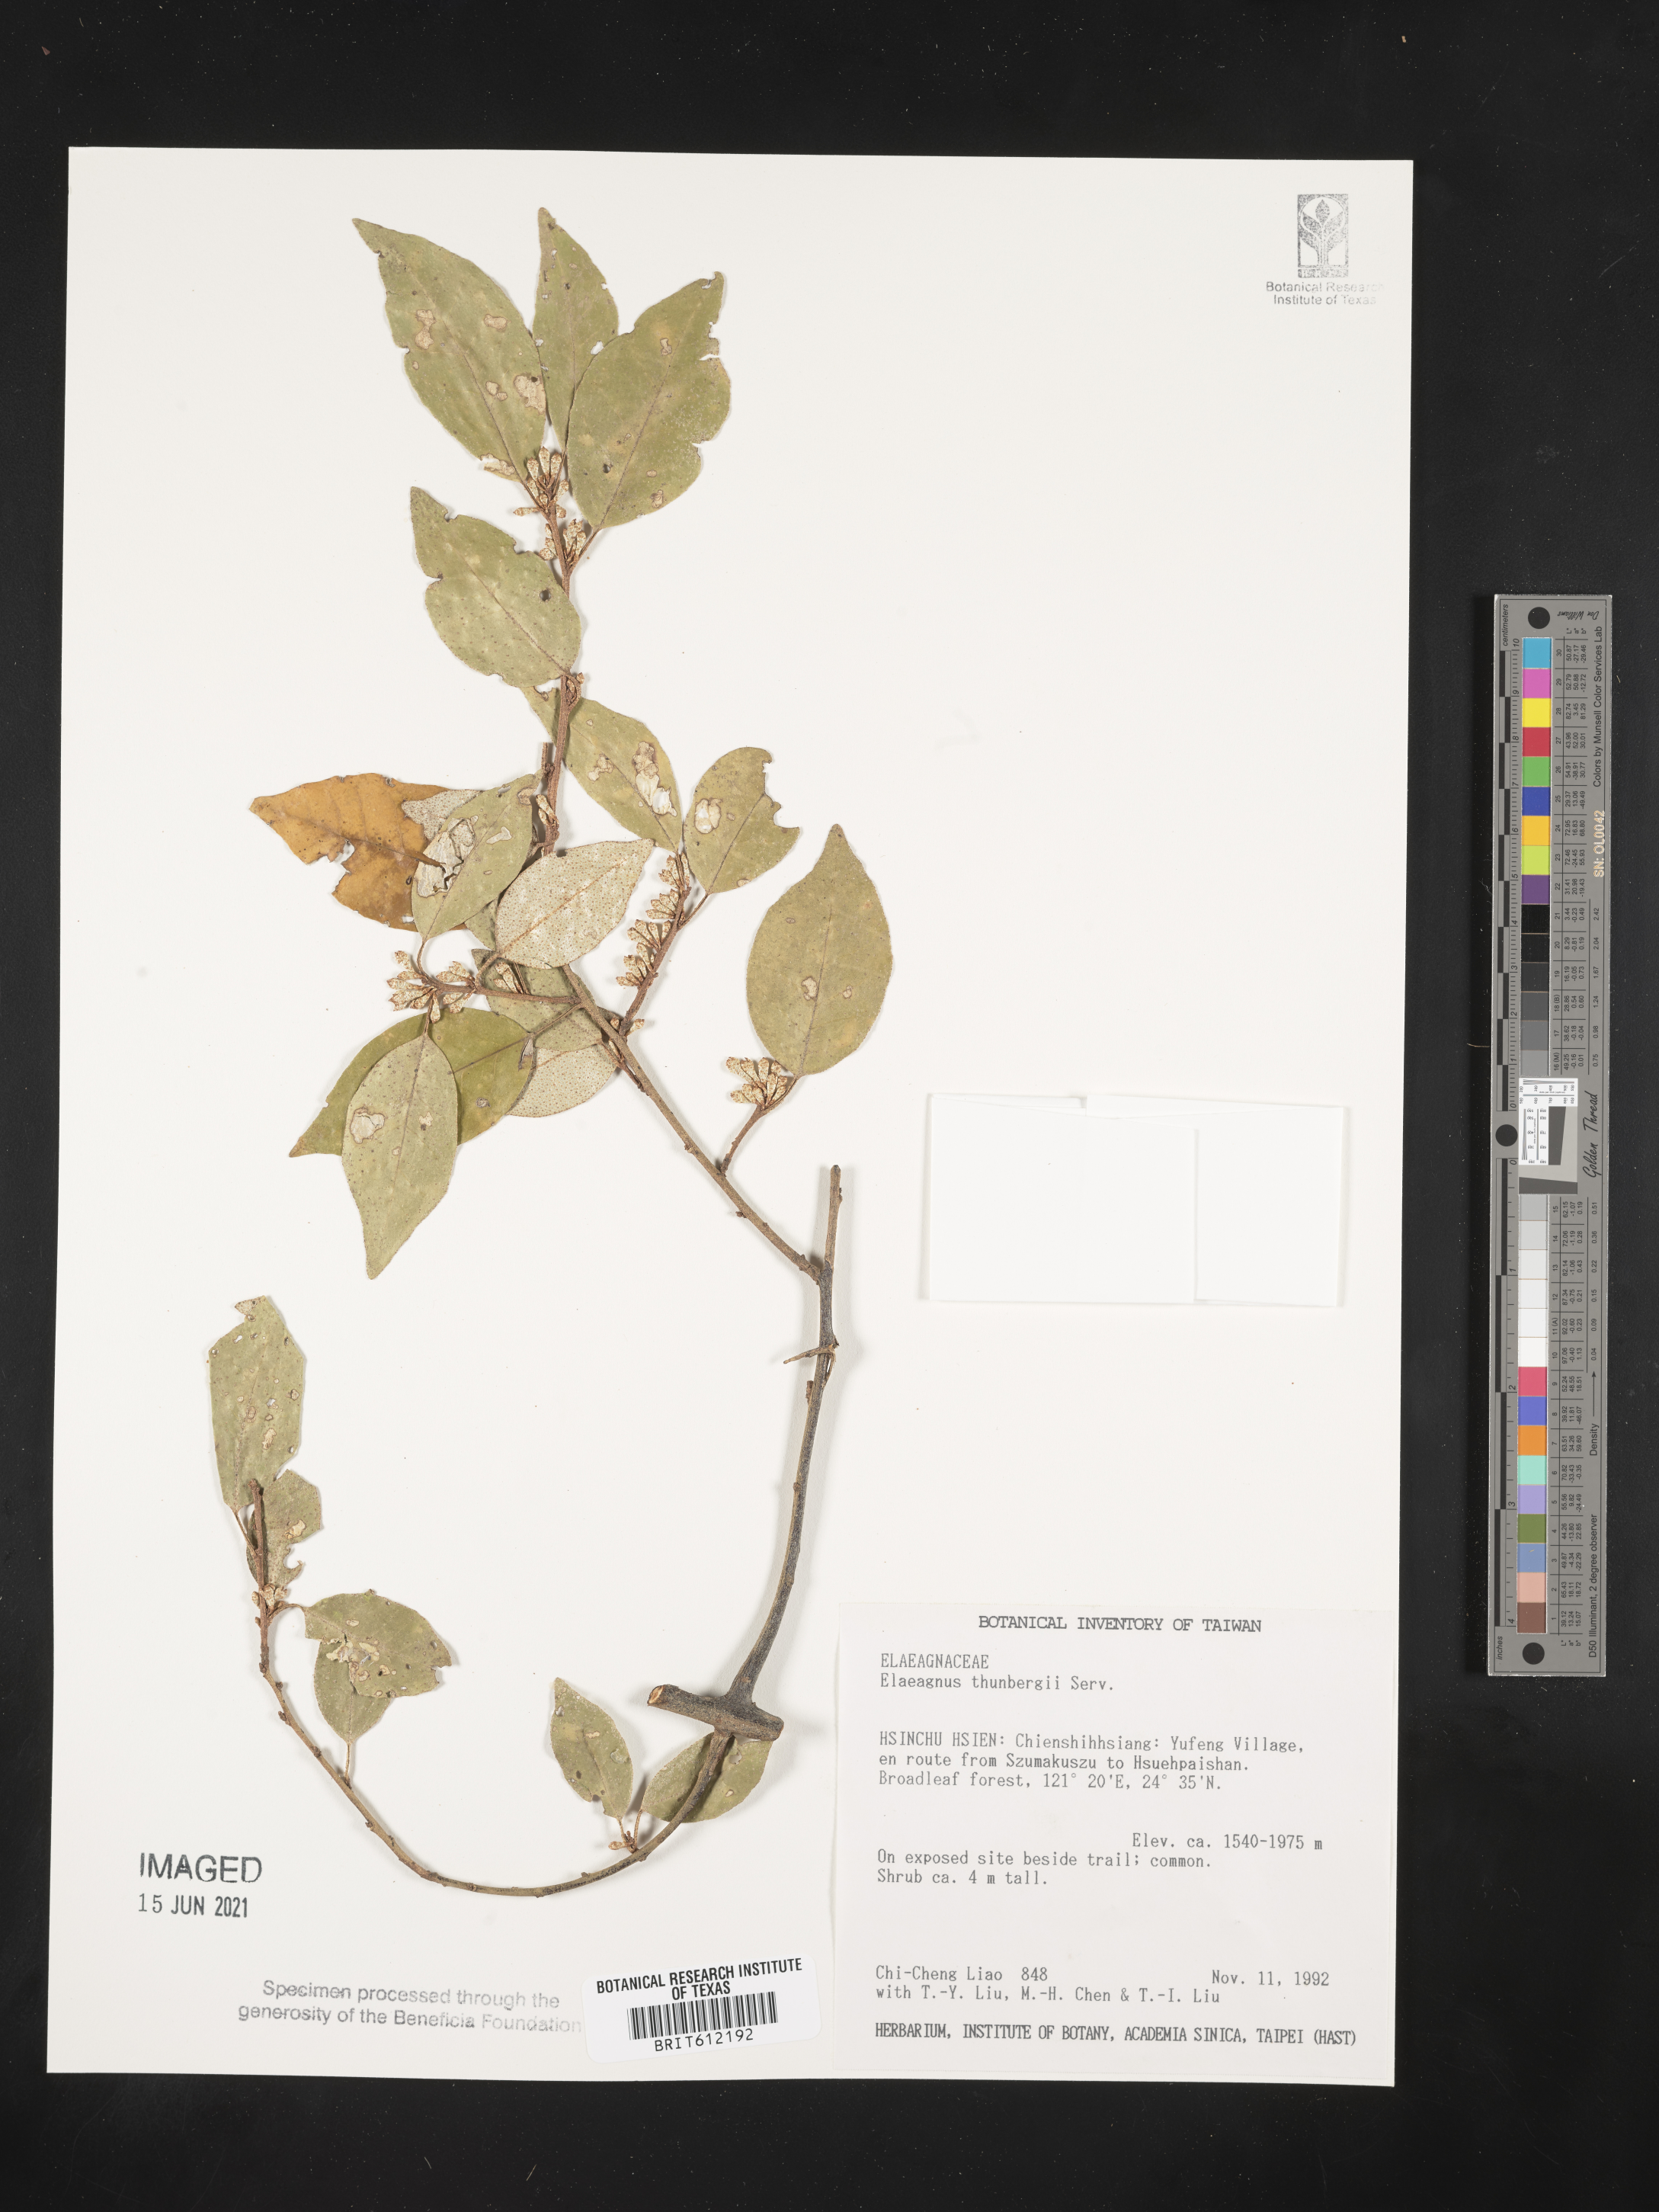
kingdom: Plantae
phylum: Tracheophyta
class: Magnoliopsida
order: Rosales
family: Elaeagnaceae
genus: Elaeagnus
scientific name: Elaeagnus thunbergii
